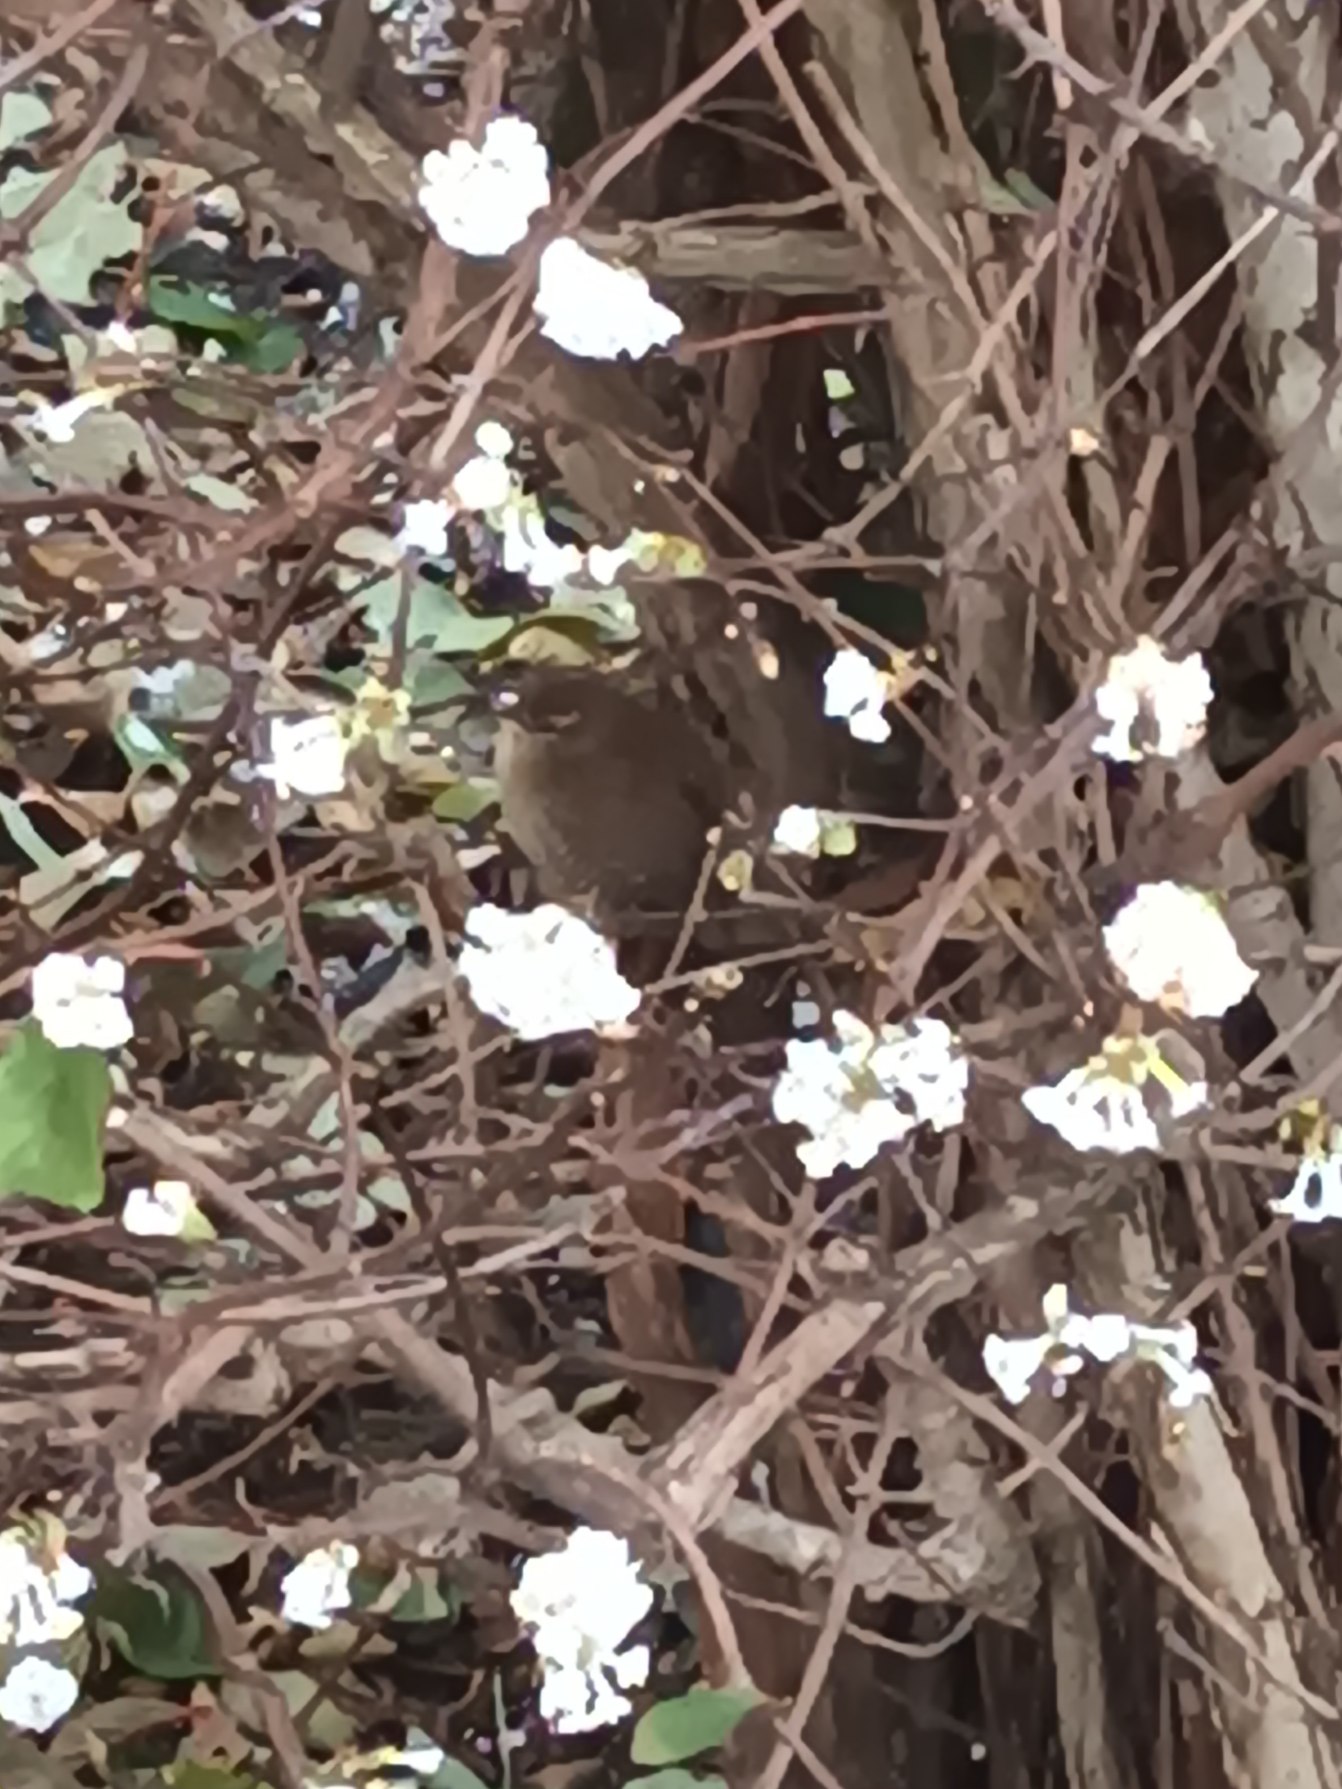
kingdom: Animalia
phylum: Chordata
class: Aves
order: Passeriformes
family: Troglodytidae
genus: Troglodytes
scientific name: Troglodytes troglodytes
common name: Gærdesmutte
